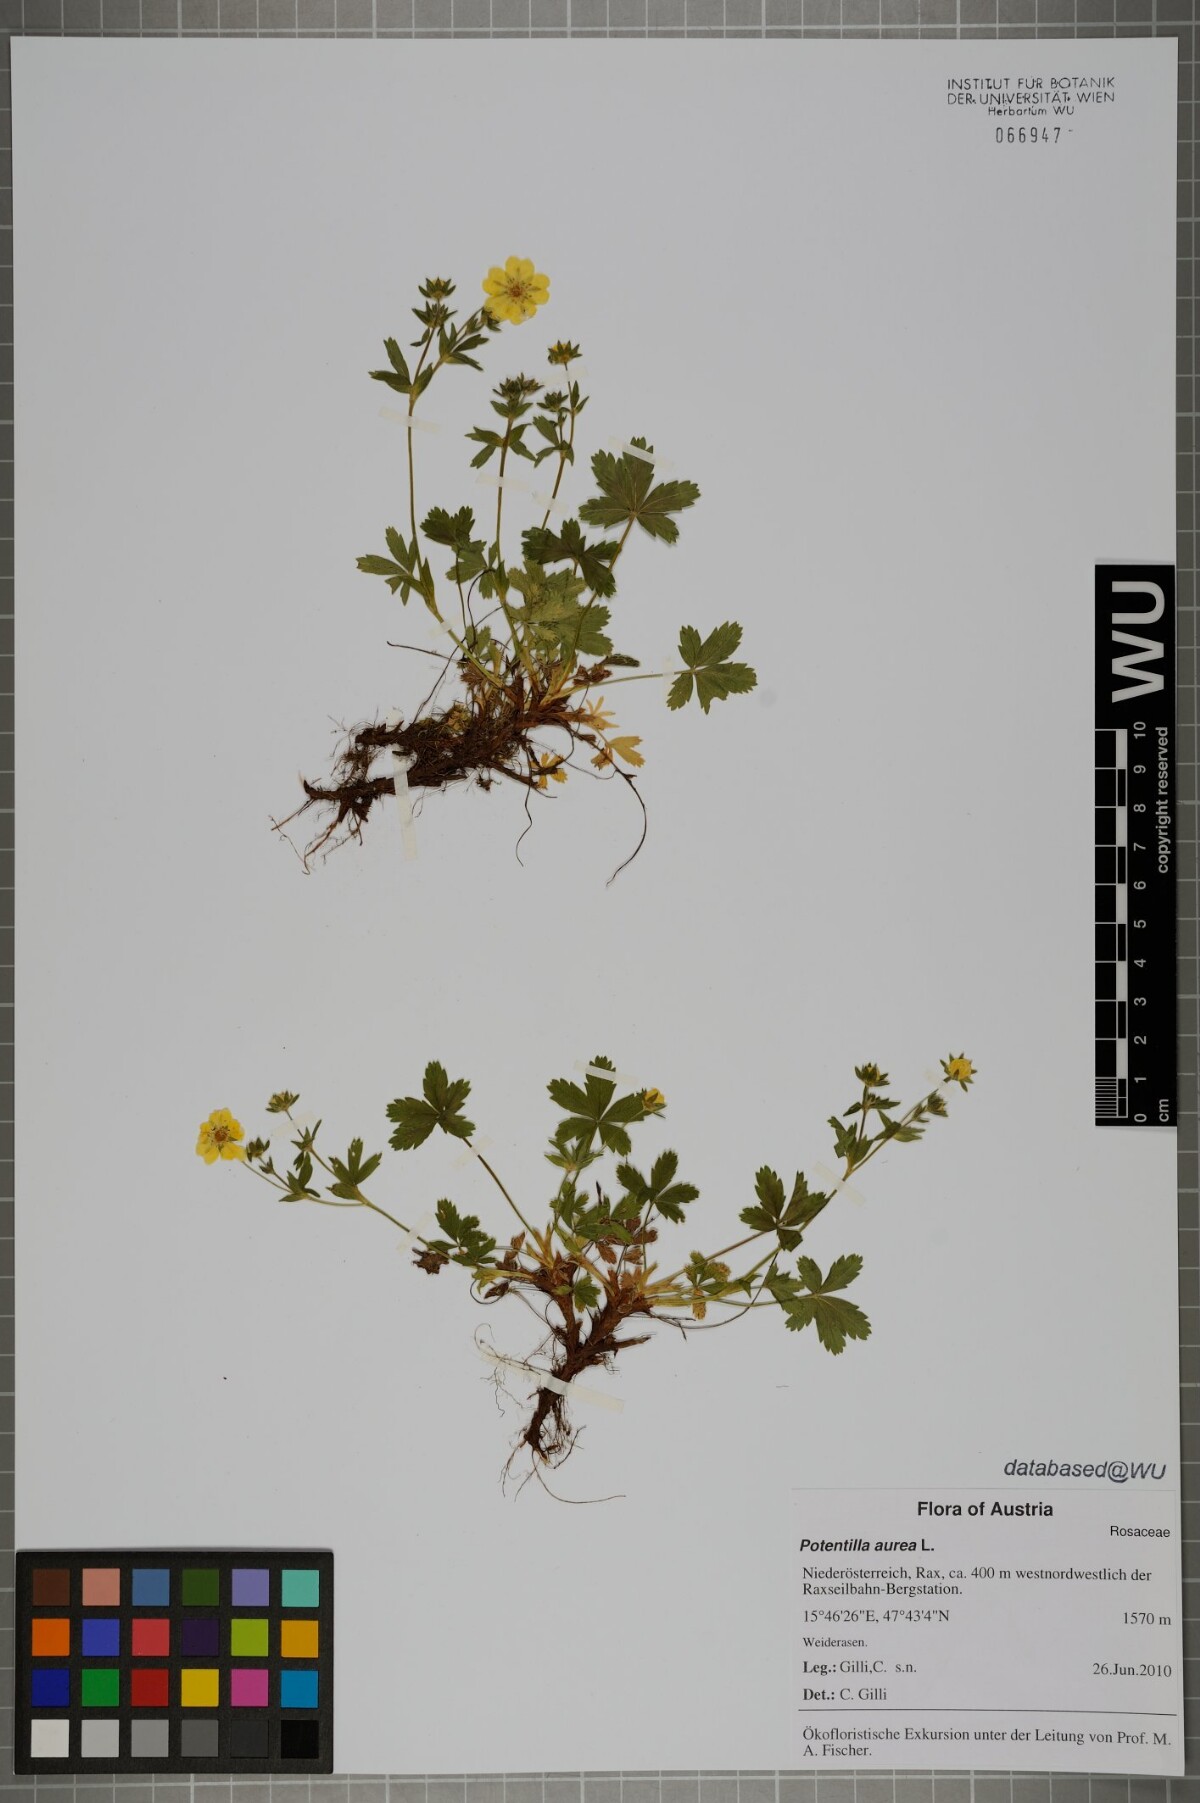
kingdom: Plantae
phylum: Tracheophyta
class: Magnoliopsida
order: Rosales
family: Rosaceae
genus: Potentilla
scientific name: Potentilla aurea
